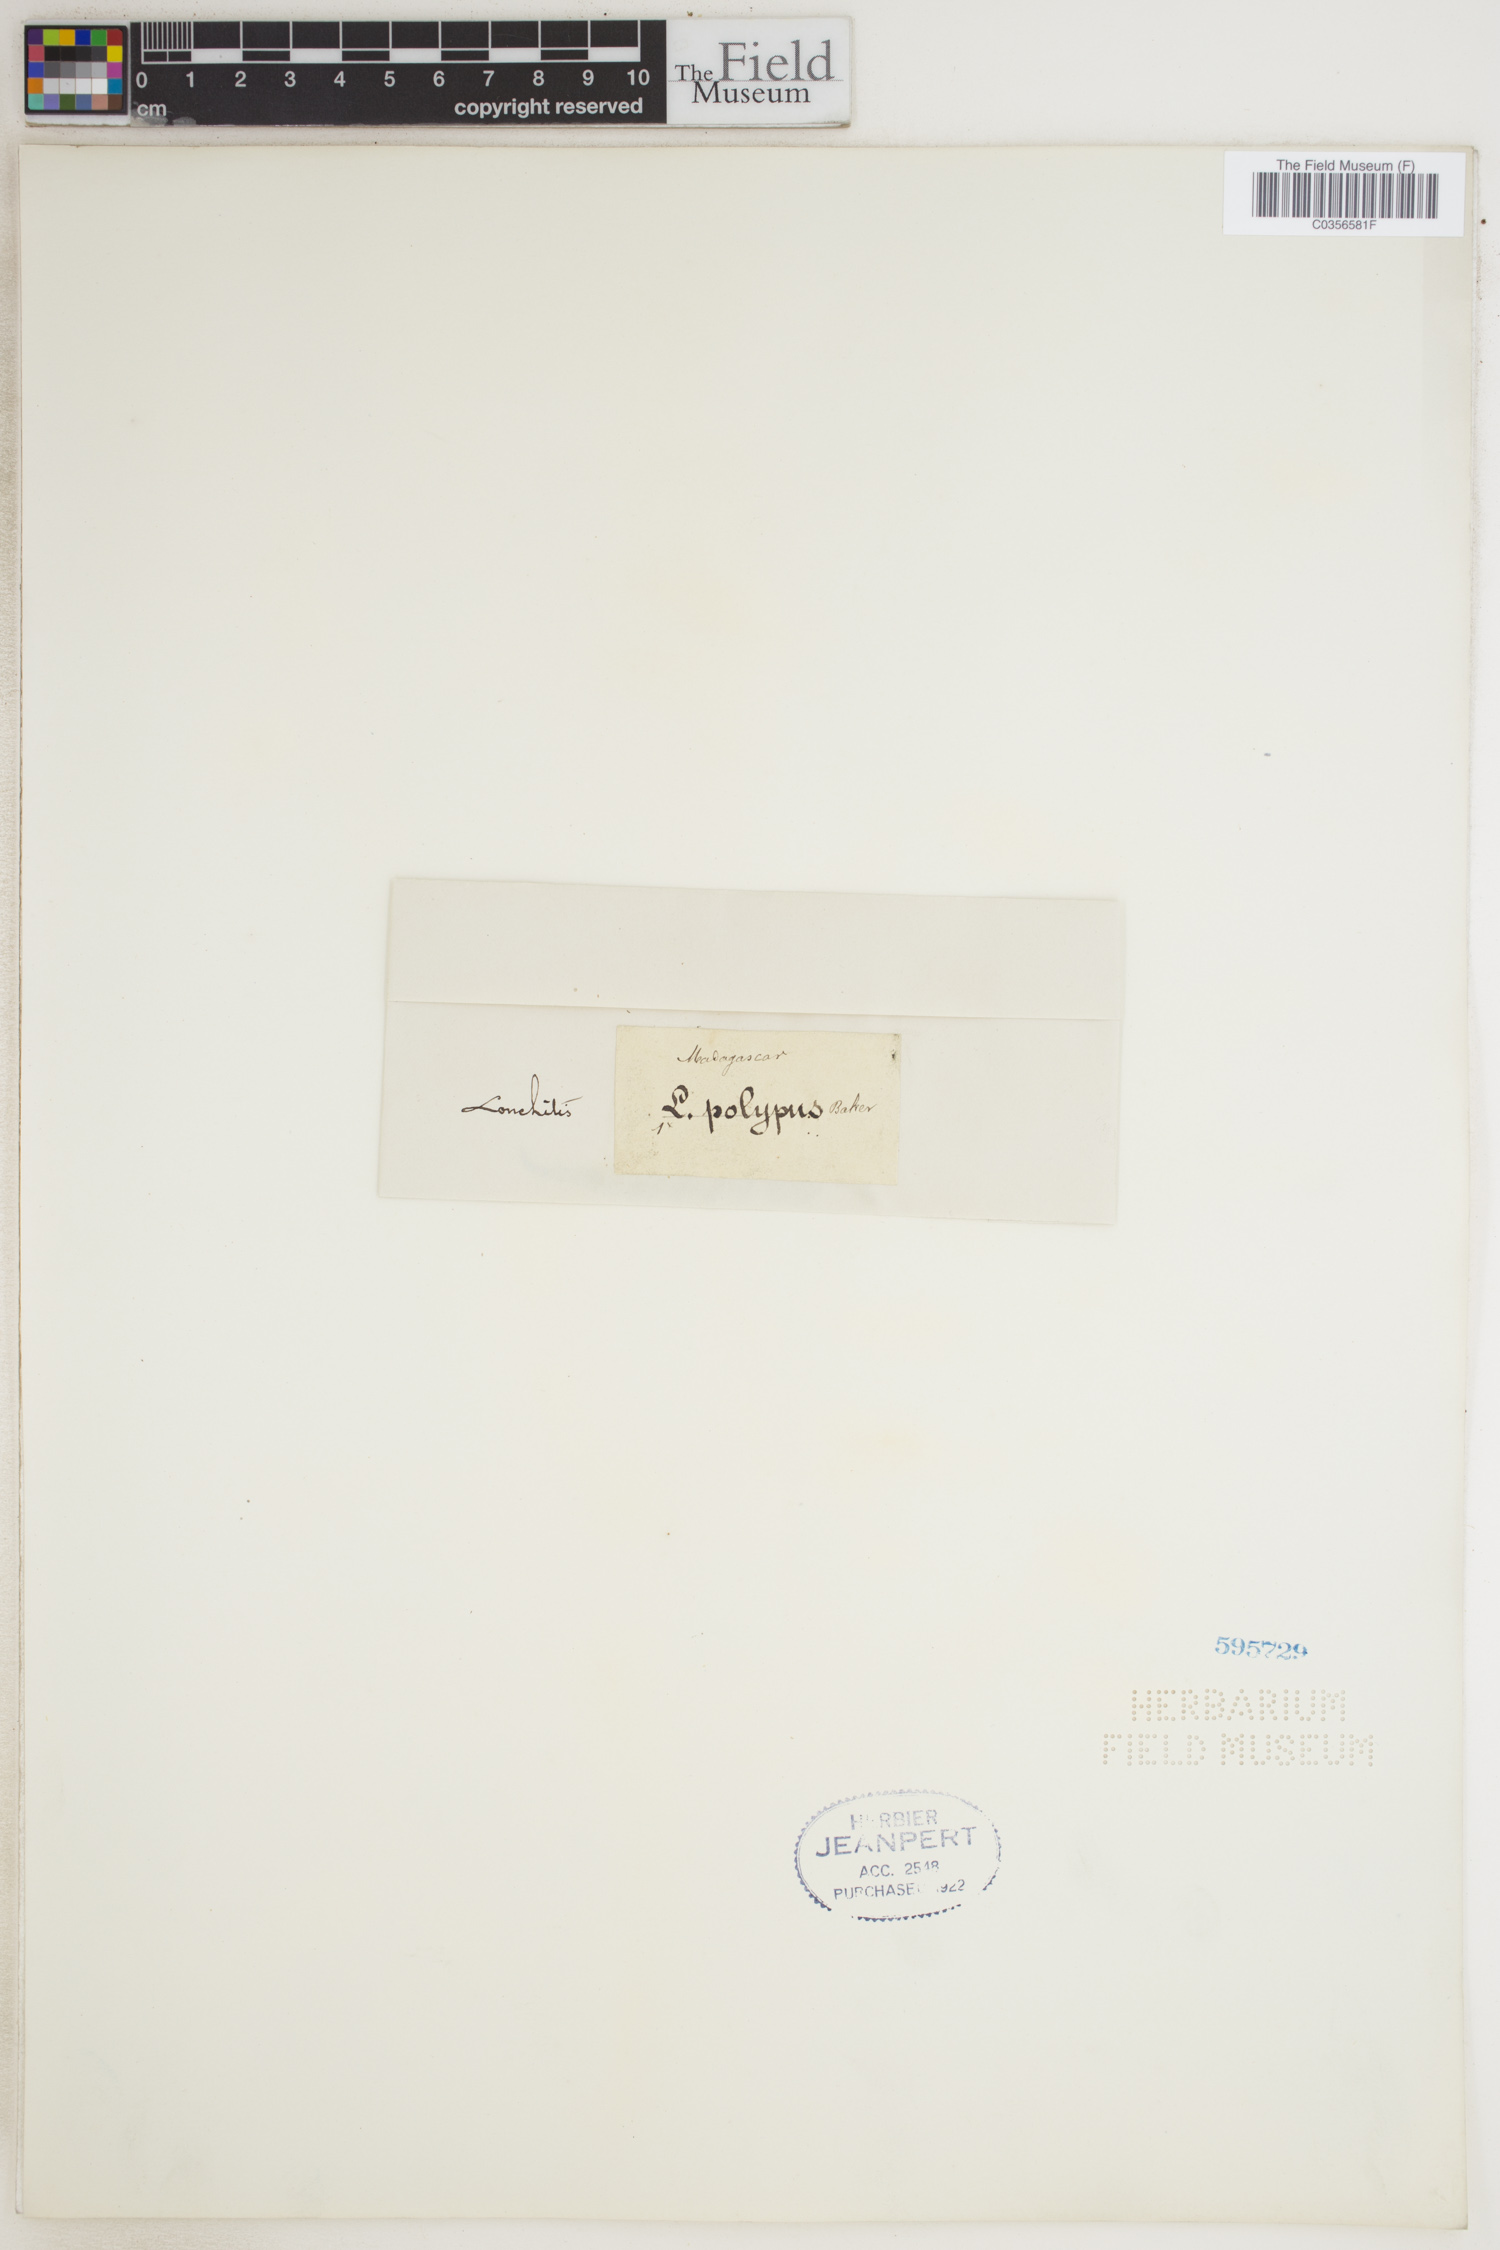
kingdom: Plantae
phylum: Tracheophyta
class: Polypodiopsida
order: Polypodiales
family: Dennstaedtiaceae
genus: Blotiella
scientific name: Blotiella pubescens
